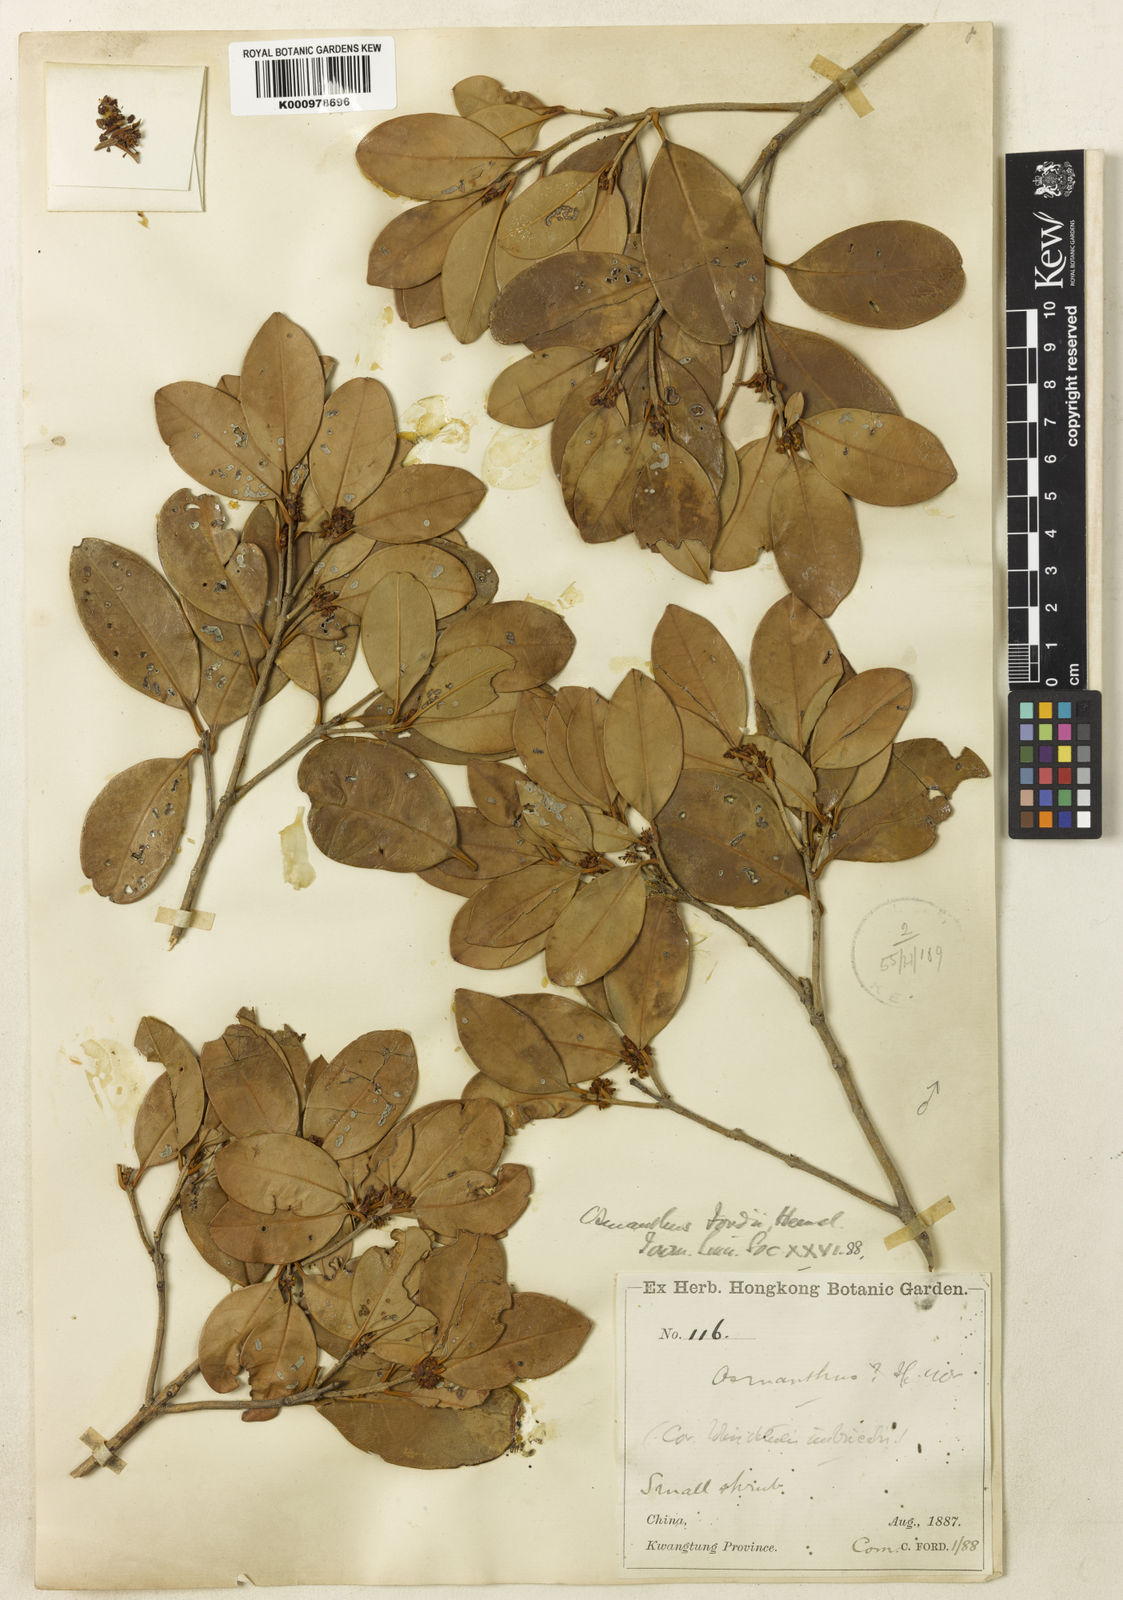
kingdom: Plantae
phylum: Tracheophyta
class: Magnoliopsida
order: Lamiales
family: Oleaceae
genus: Osmanthus
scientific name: Osmanthus fordii
